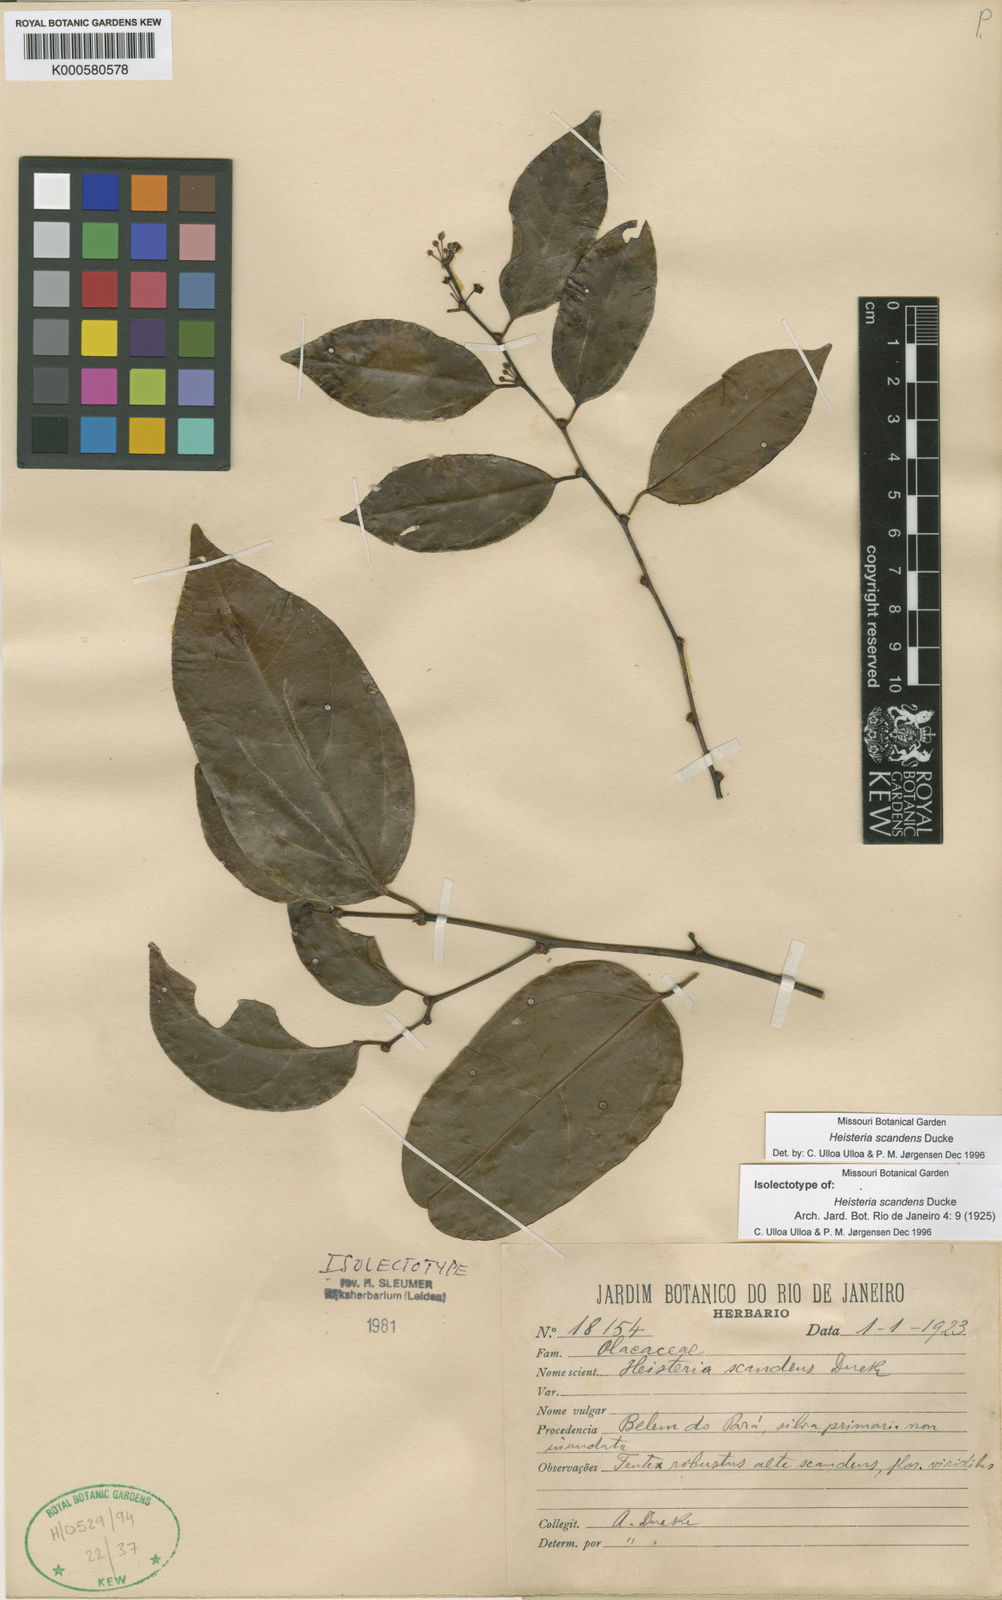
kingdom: Plantae
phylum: Tracheophyta
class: Magnoliopsida
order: Santalales
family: Erythropalaceae
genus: Heisteria
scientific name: Heisteria scandens
